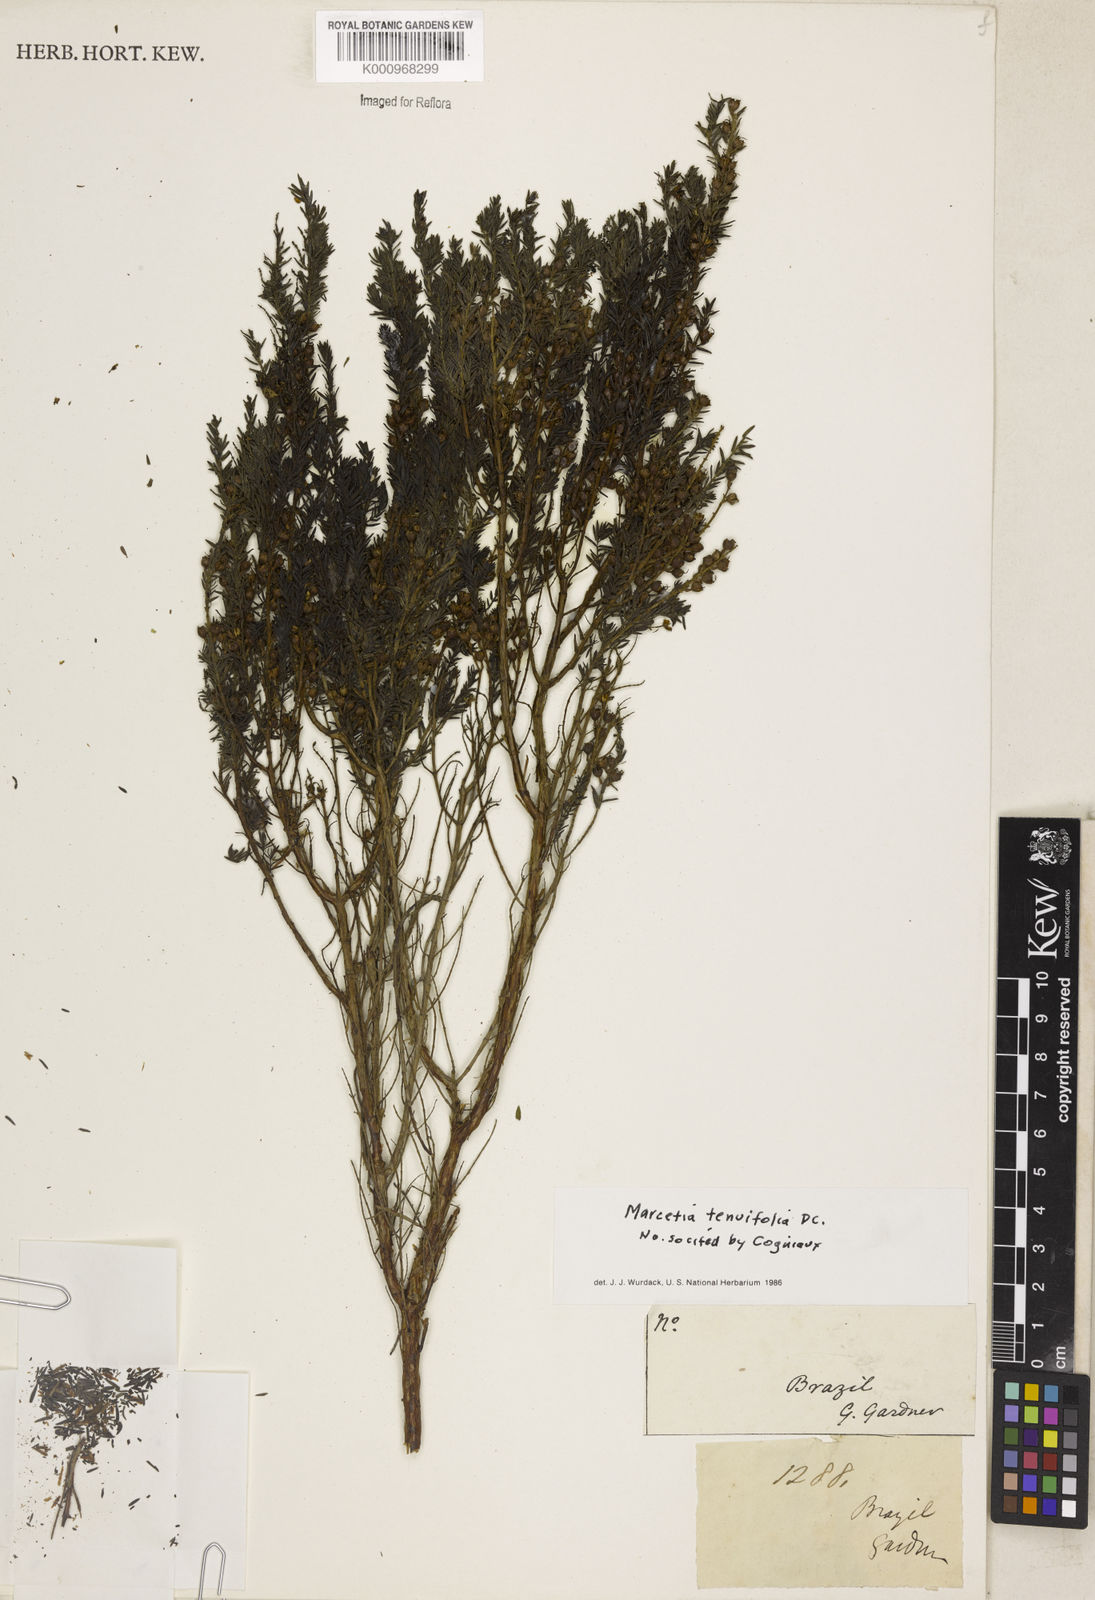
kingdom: Plantae
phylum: Tracheophyta
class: Magnoliopsida
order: Myrtales
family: Melastomataceae
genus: Marcetia
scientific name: Marcetia taxifolia
